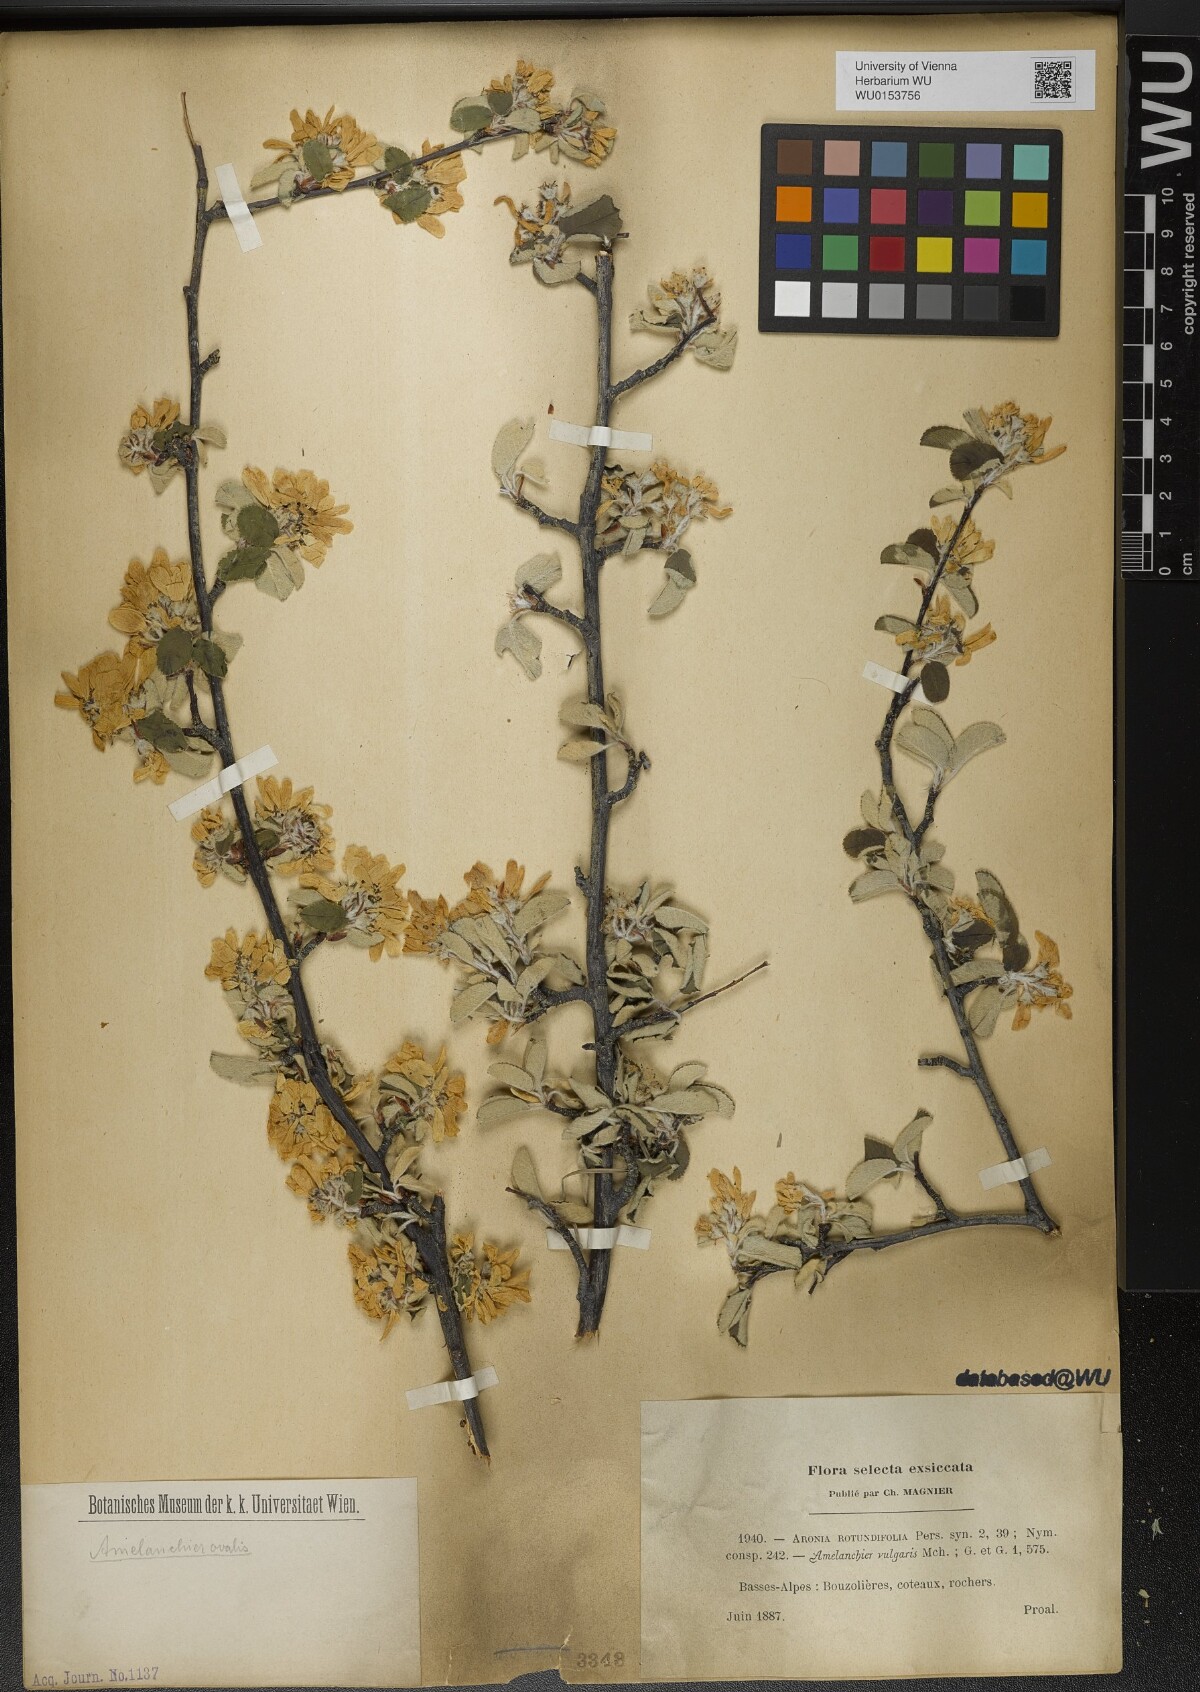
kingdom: Plantae
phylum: Tracheophyta
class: Magnoliopsida
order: Rosales
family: Rosaceae
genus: Amelanchier
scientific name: Amelanchier ovalis
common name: Serviceberry
